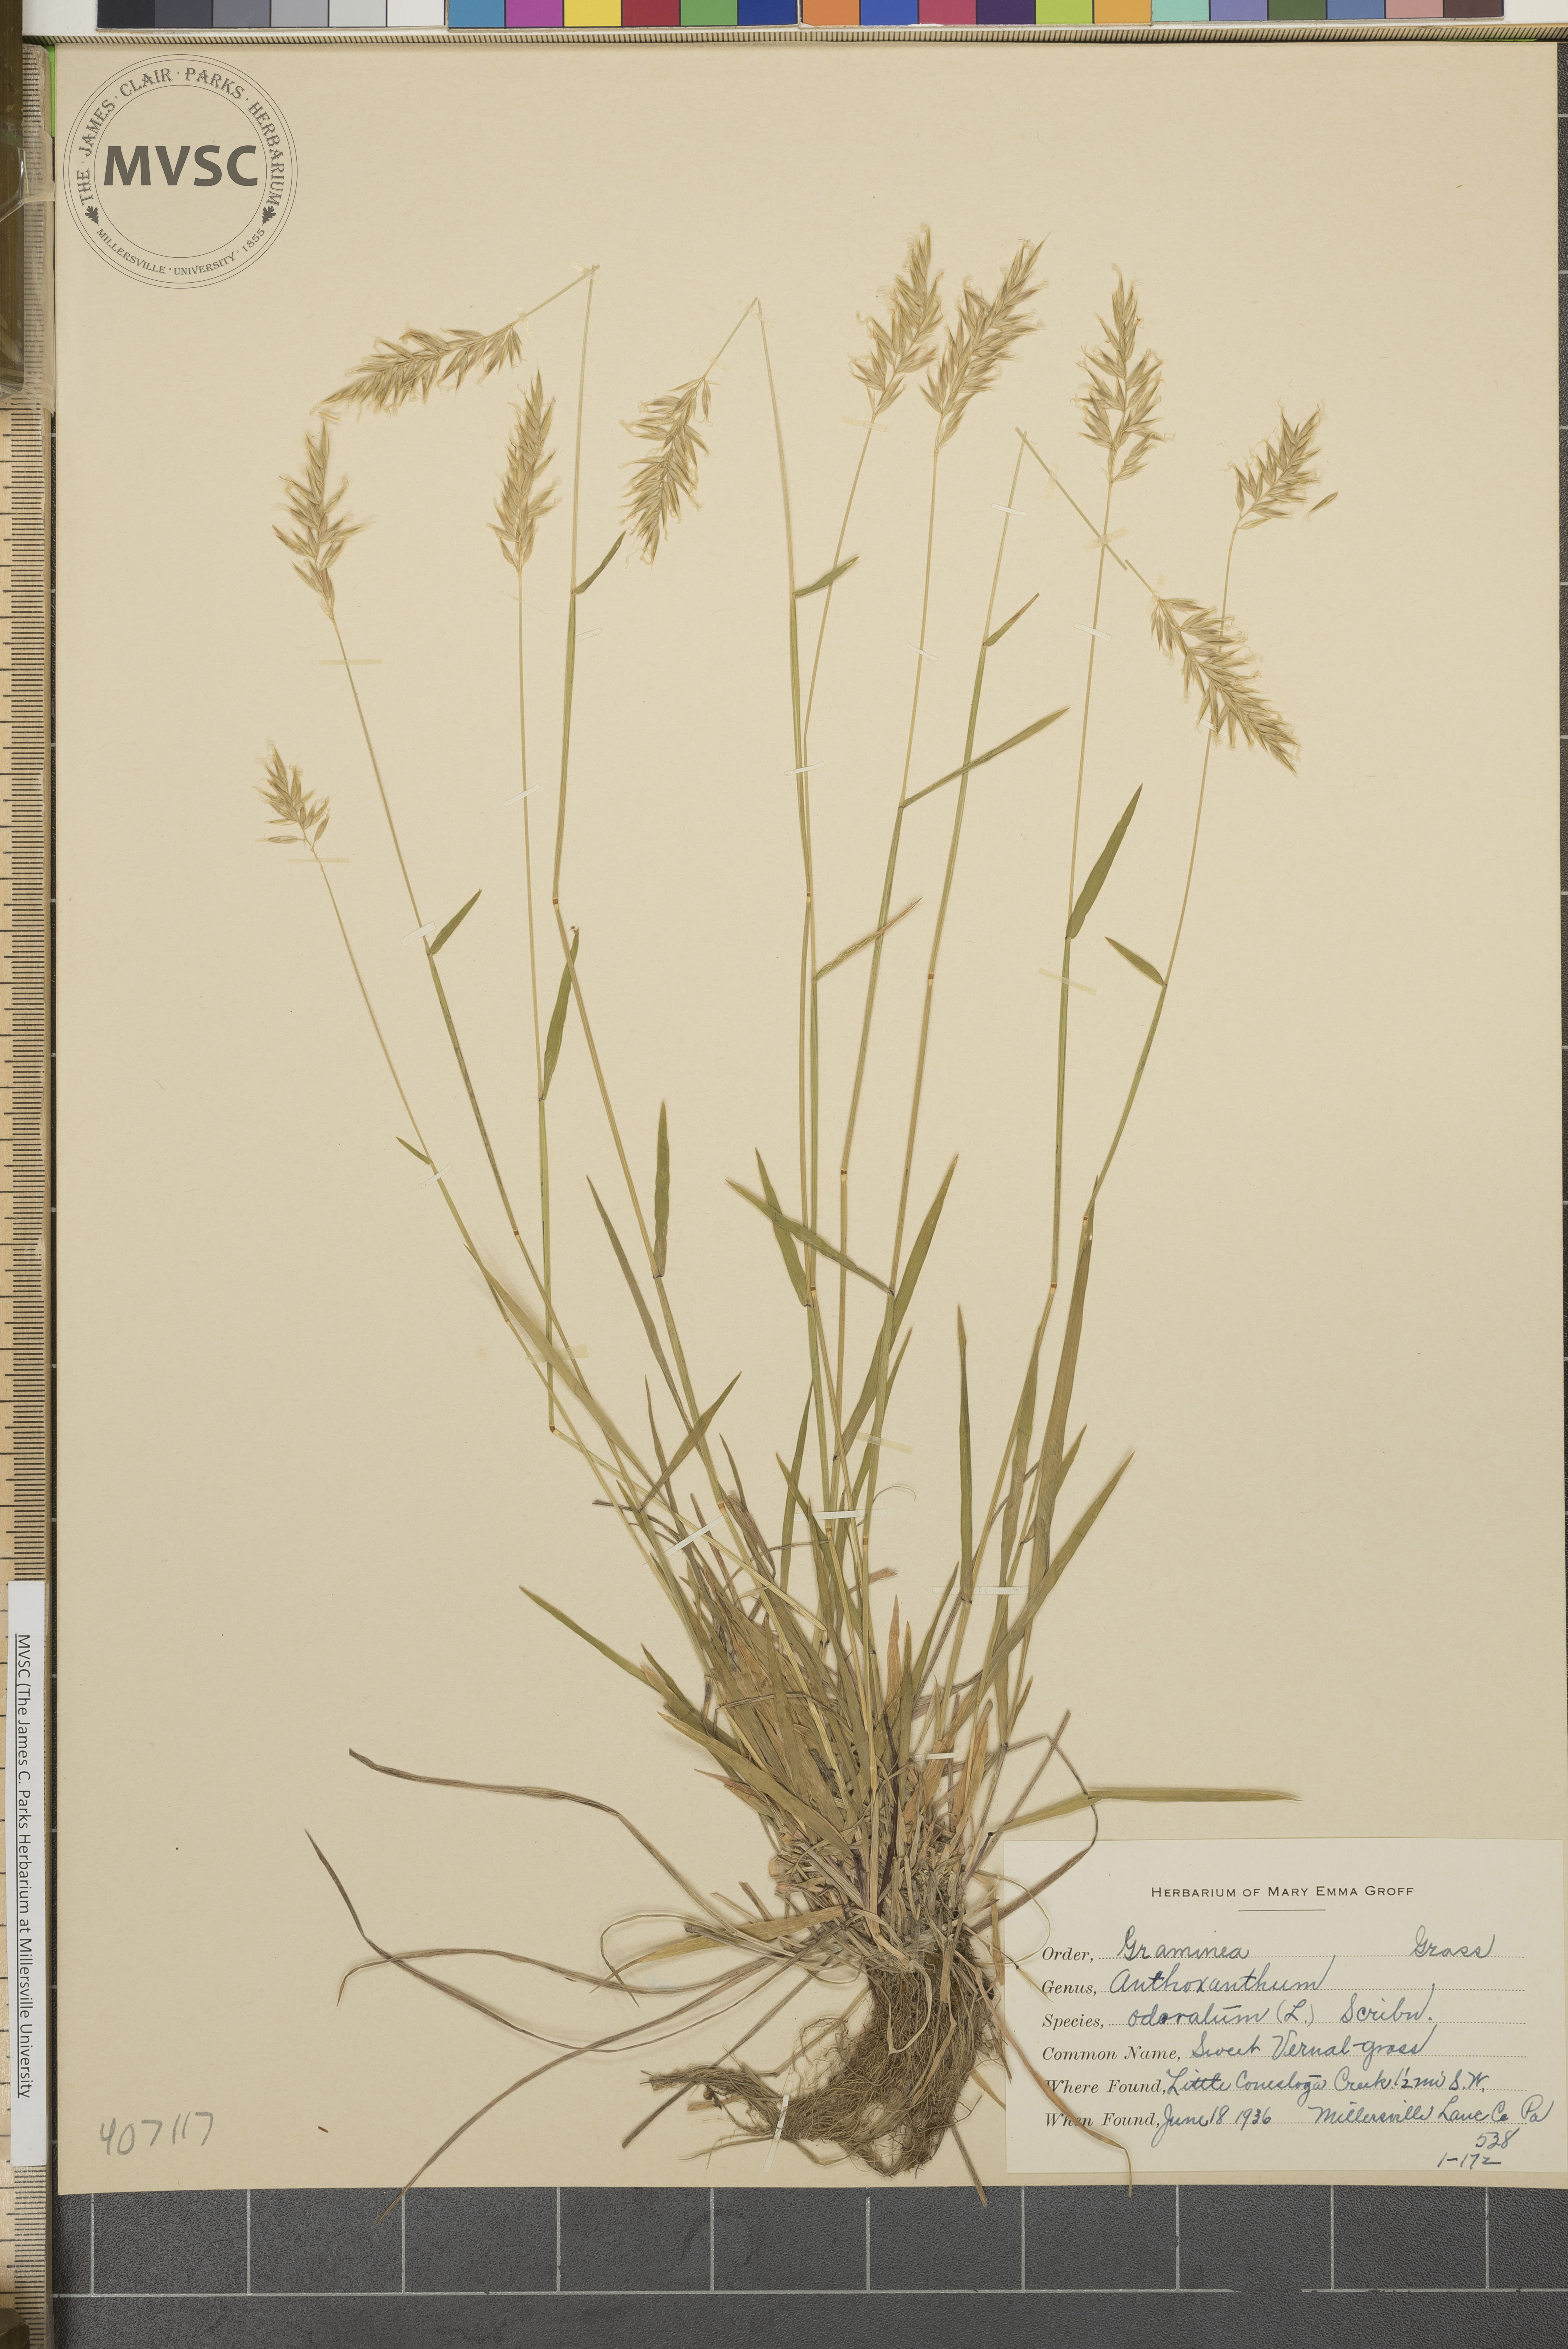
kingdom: Plantae
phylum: Tracheophyta
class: Liliopsida
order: Poales
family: Poaceae
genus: Anthoxanthum
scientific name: Anthoxanthum odoratum
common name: Sweet vernalgrass
